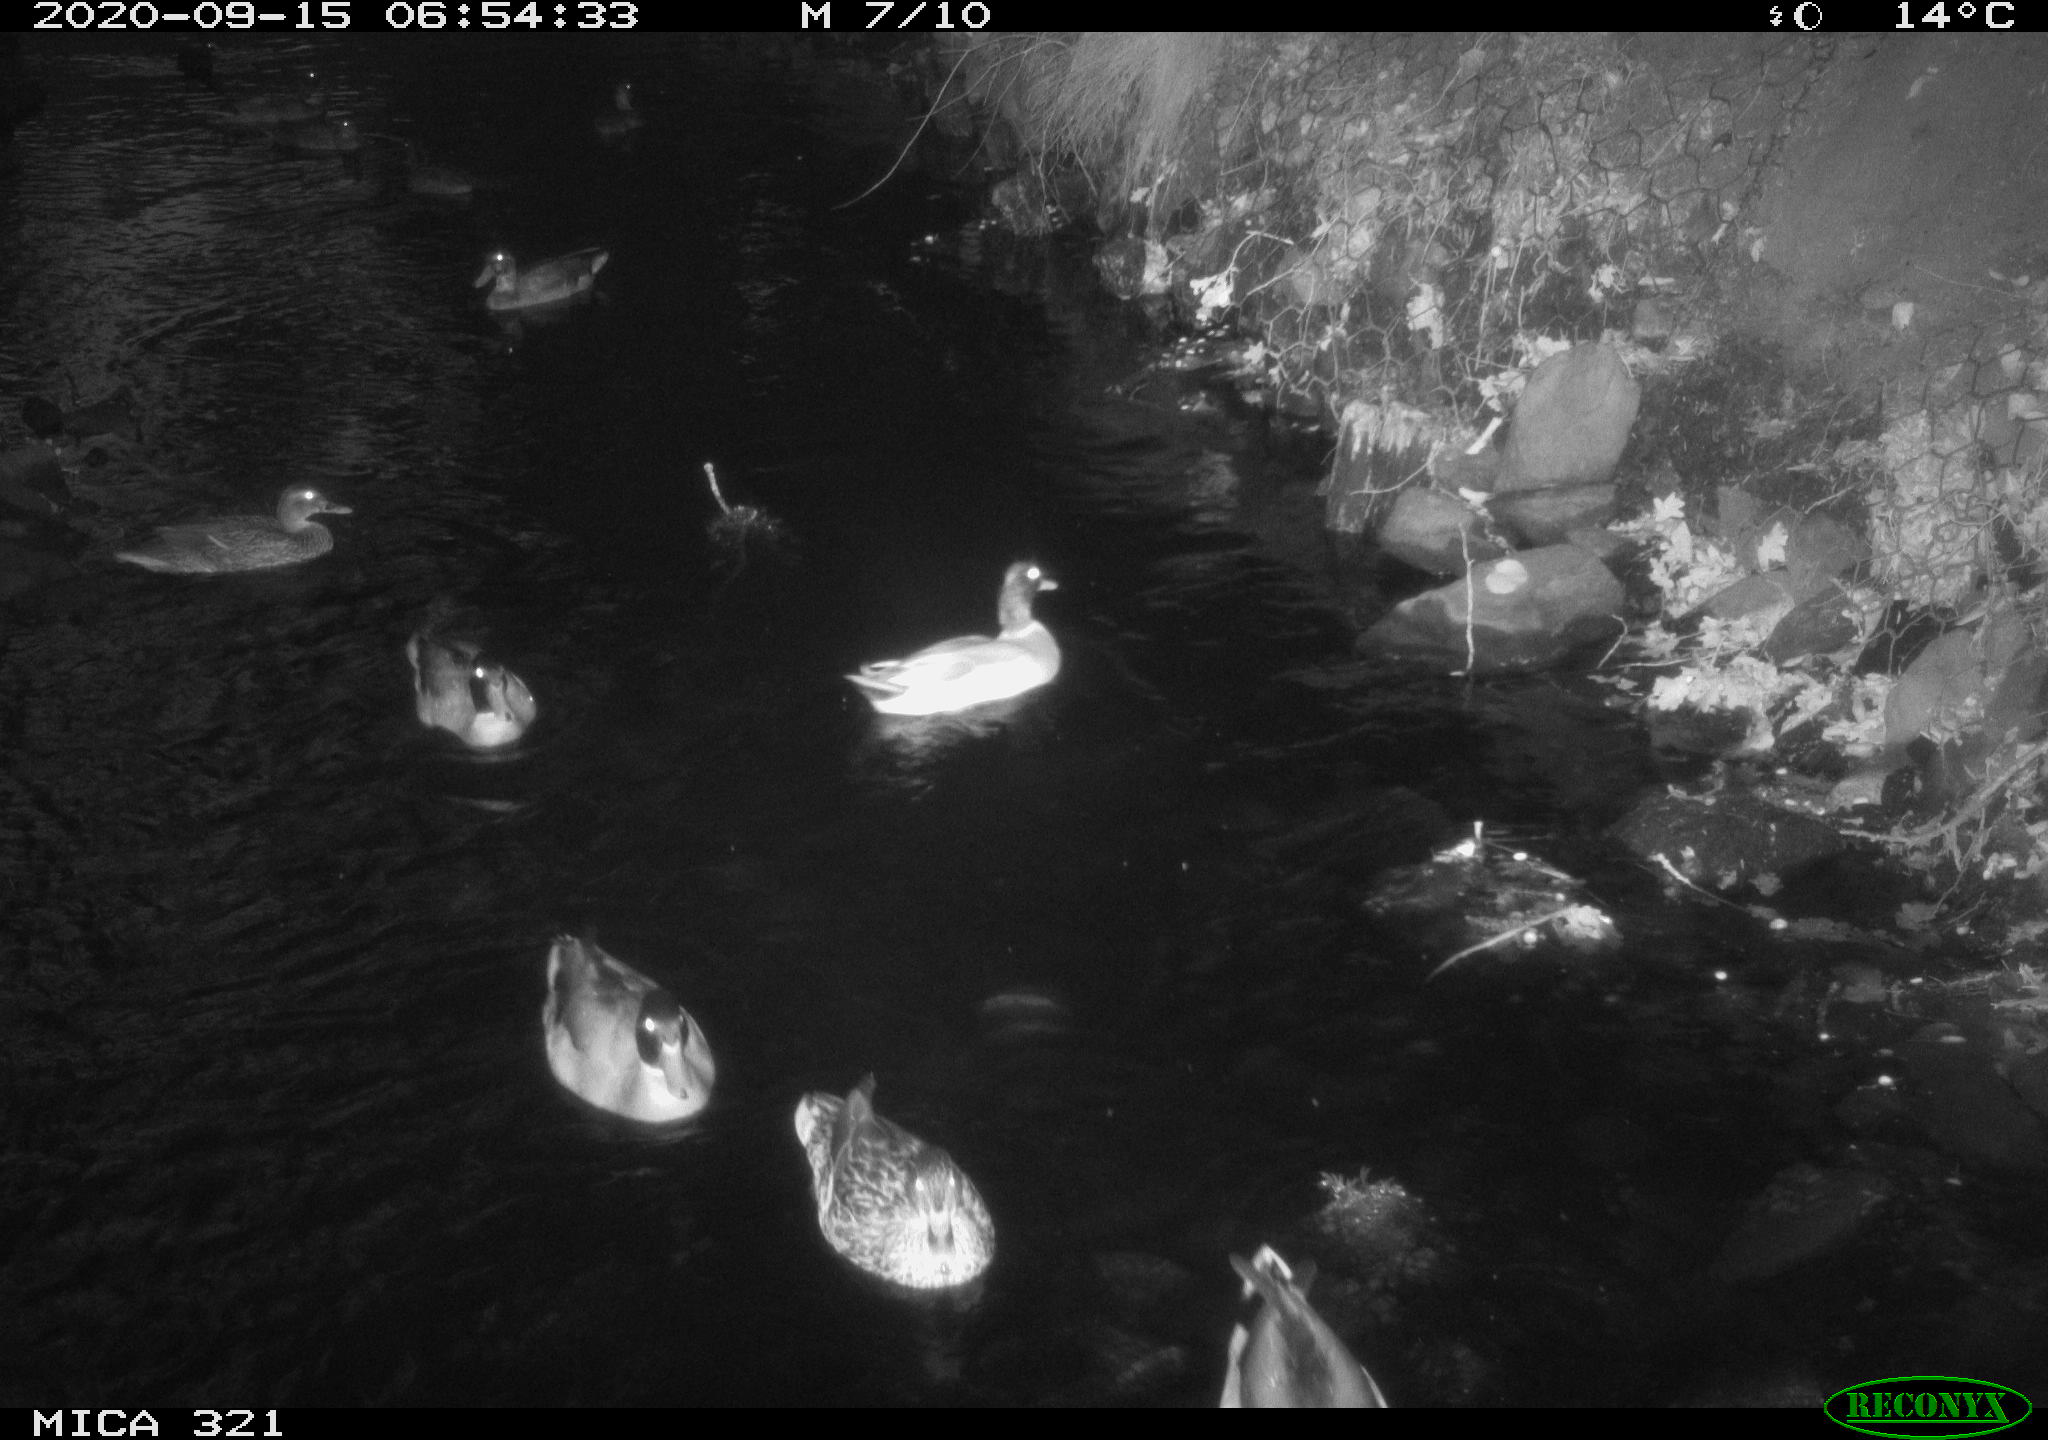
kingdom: Animalia
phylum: Chordata
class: Aves
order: Anseriformes
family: Anatidae
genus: Anas
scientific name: Anas platyrhynchos
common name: Mallard
